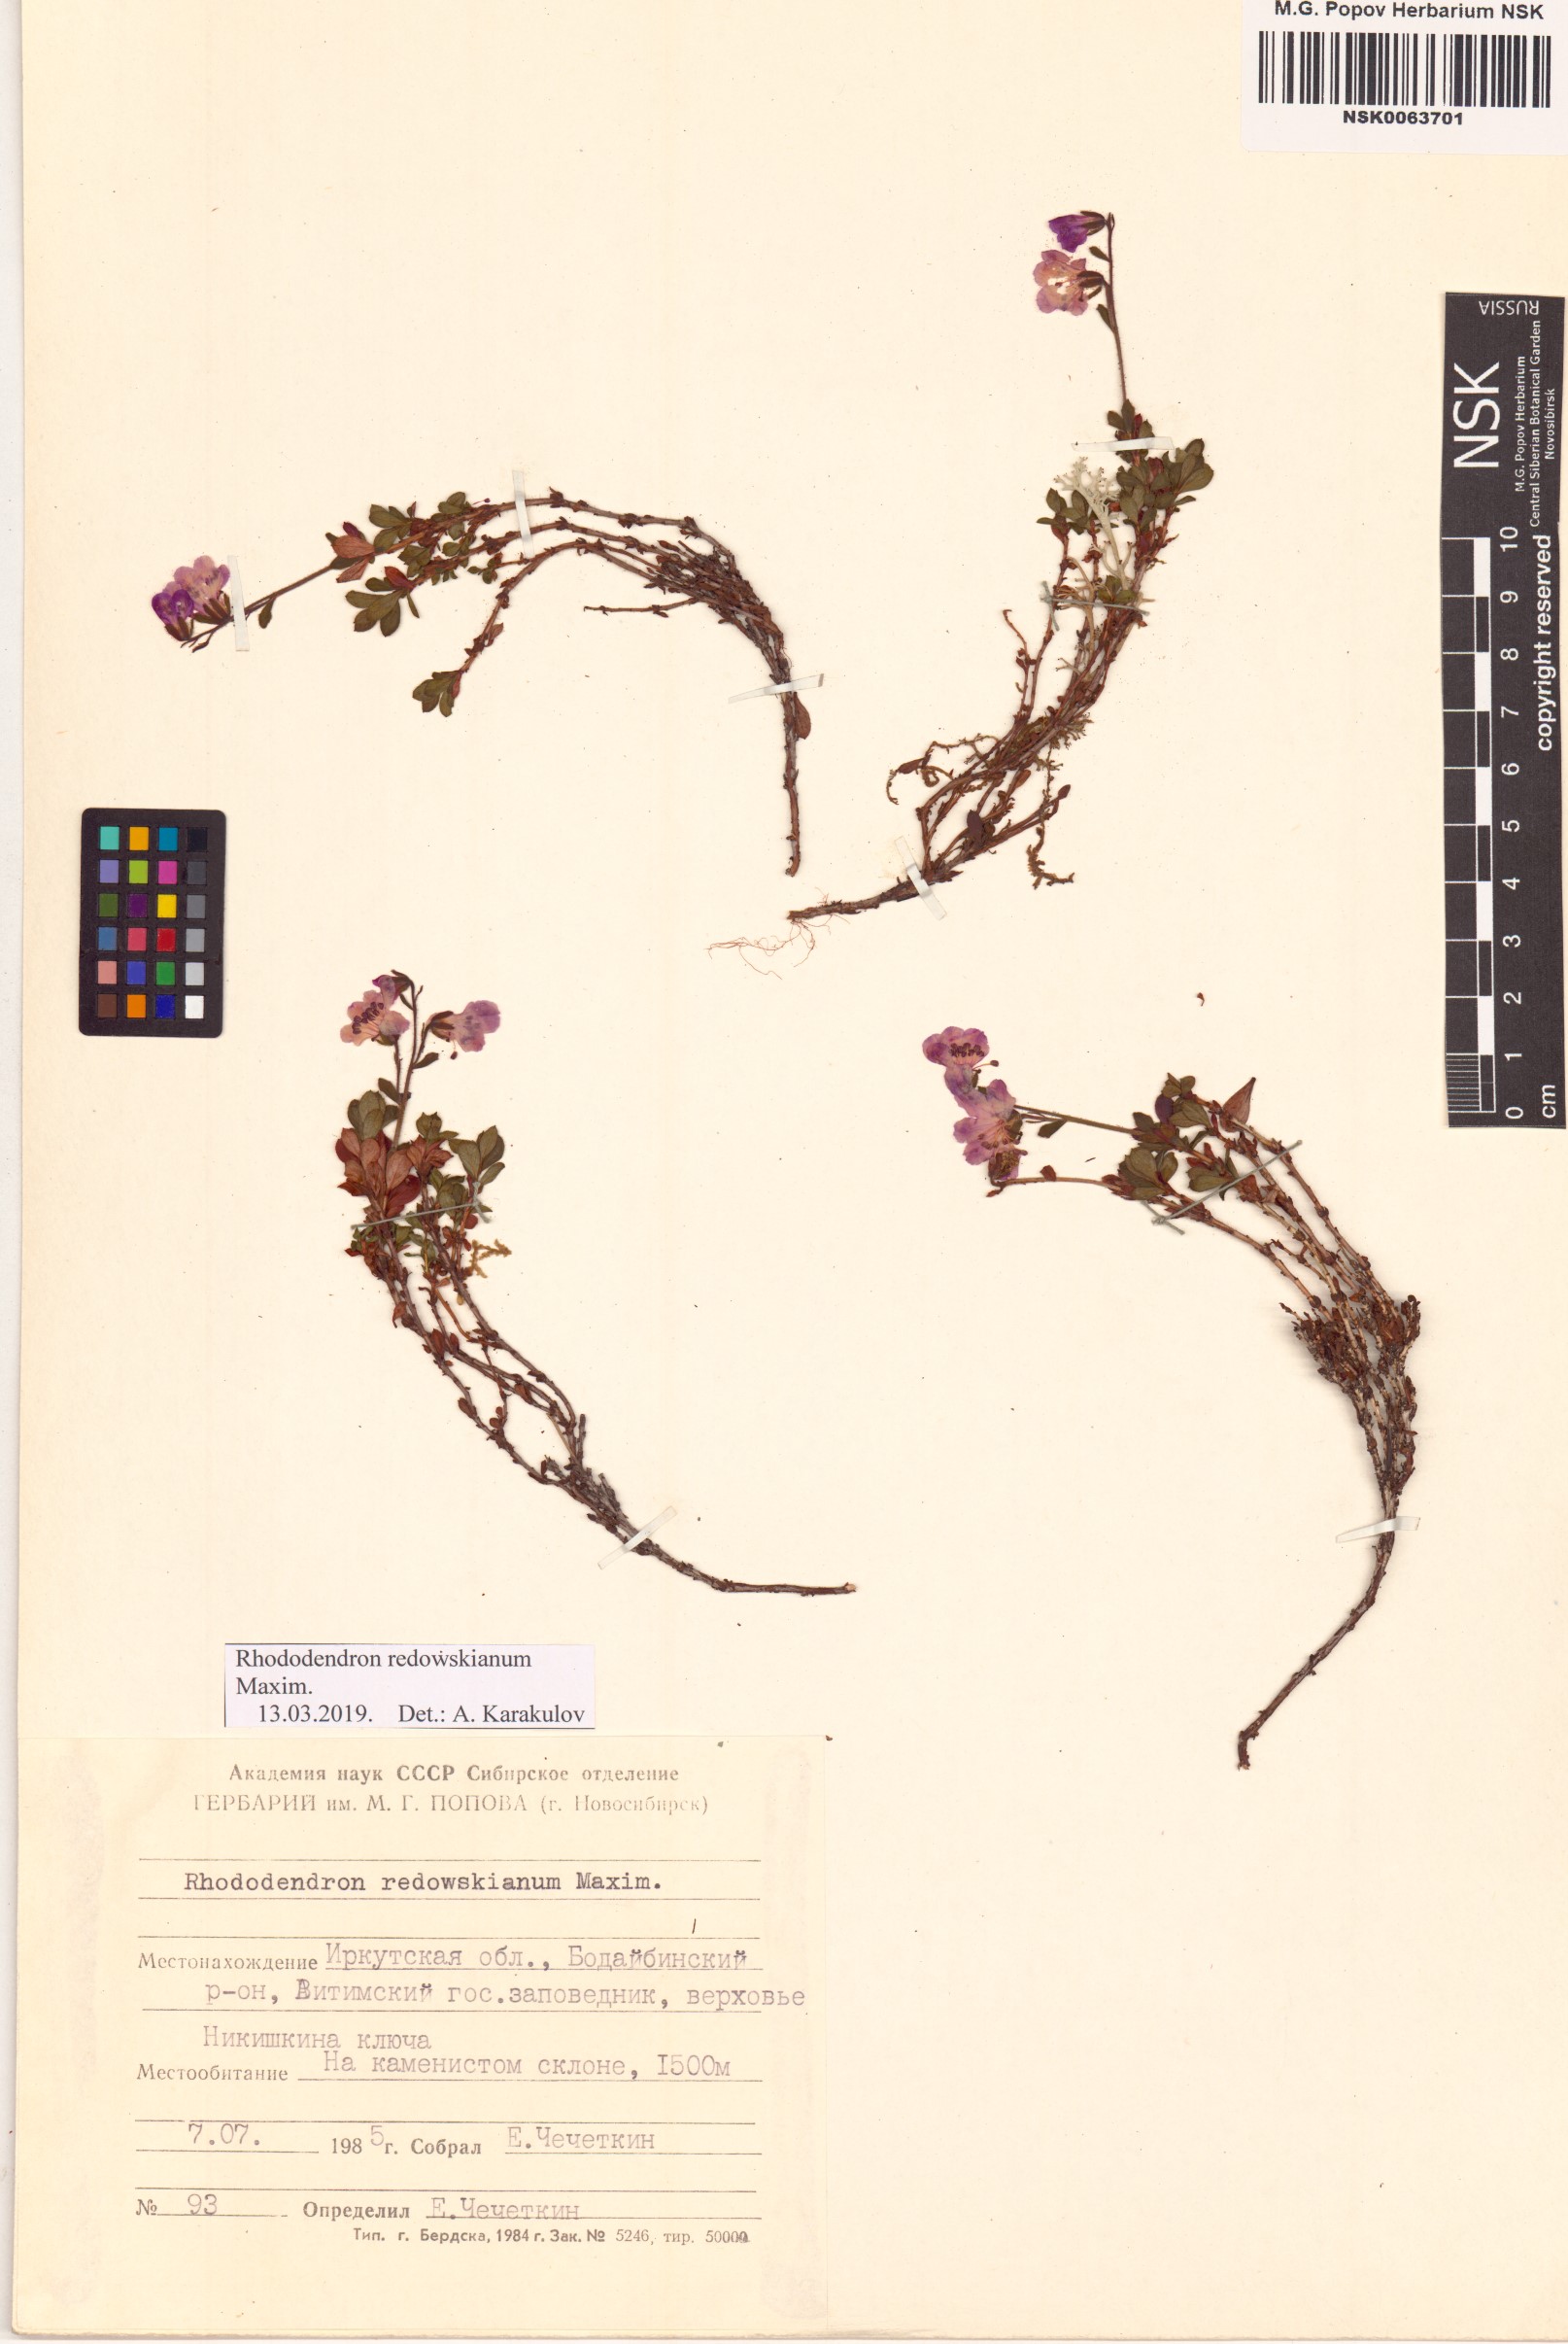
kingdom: Plantae
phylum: Tracheophyta
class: Magnoliopsida
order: Ericales
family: Ericaceae
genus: Rhododendron
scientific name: Rhododendron redowskianum
